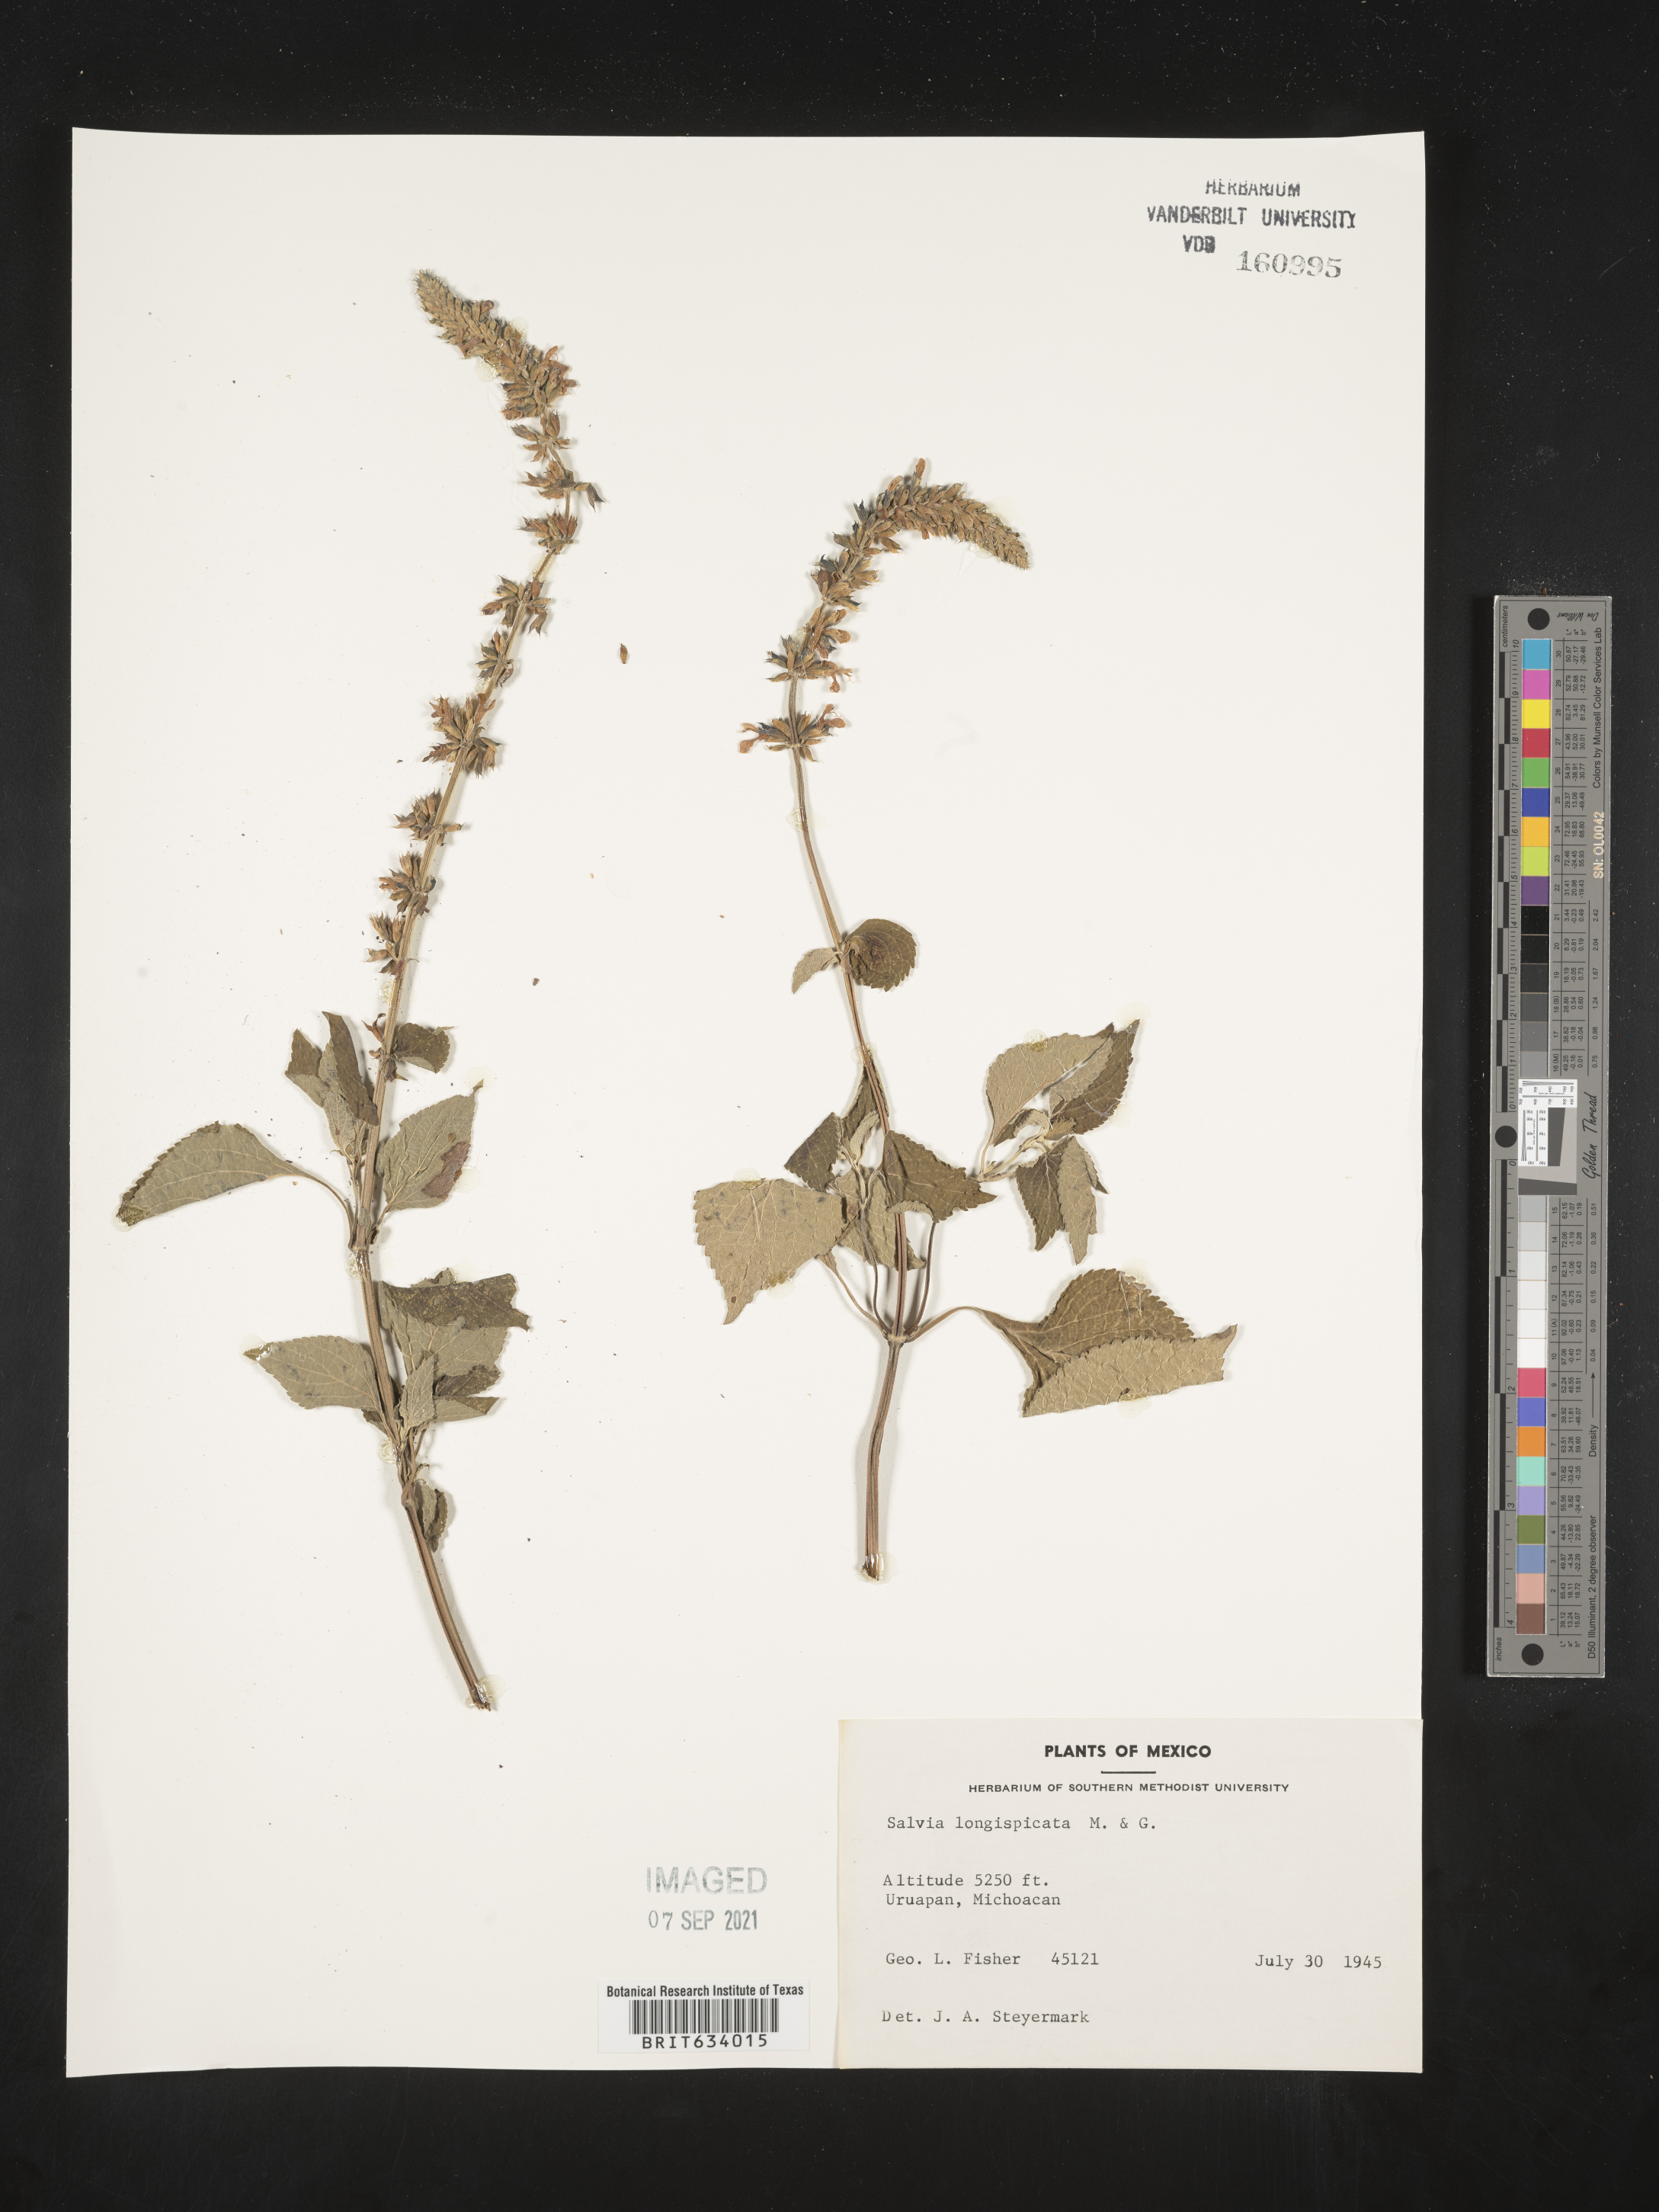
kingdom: Plantae
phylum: Tracheophyta
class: Magnoliopsida
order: Lamiales
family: Lamiaceae
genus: Salvia
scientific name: Salvia
